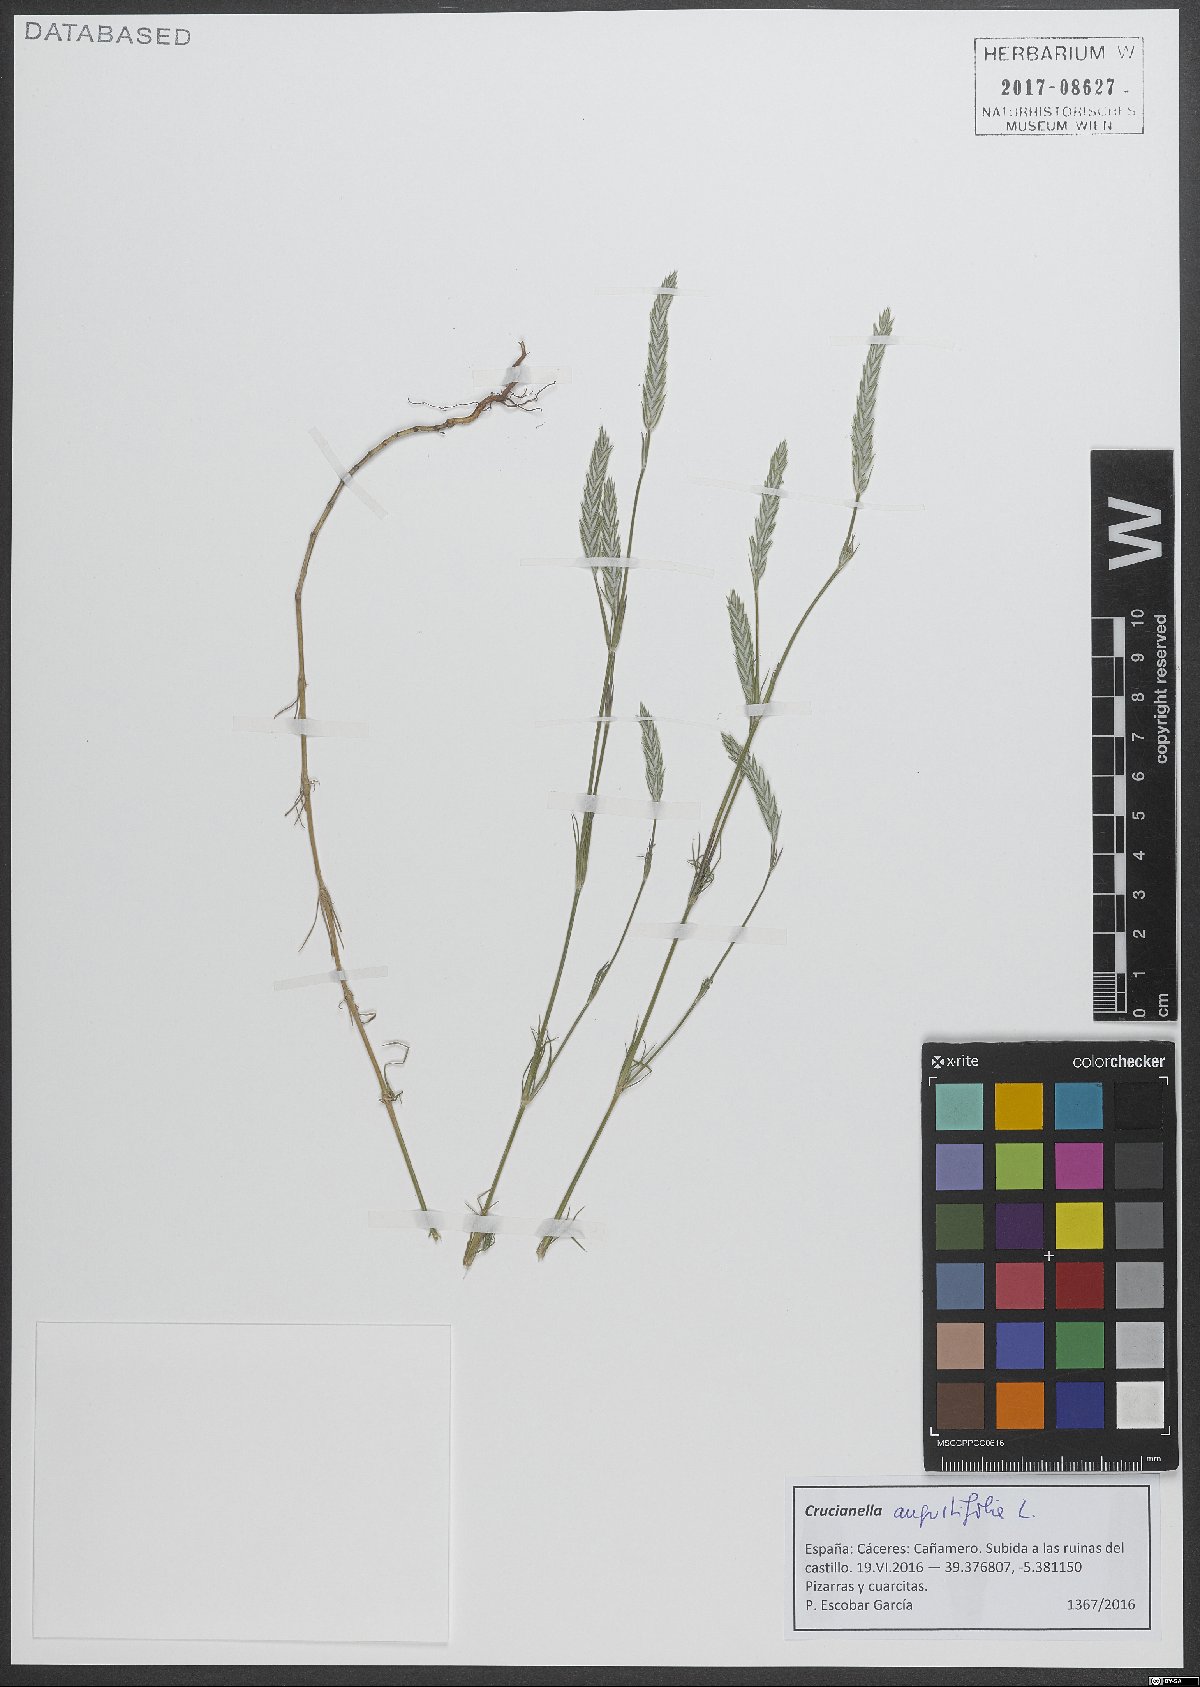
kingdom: Plantae
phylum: Tracheophyta
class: Magnoliopsida
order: Gentianales
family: Rubiaceae
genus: Crucianella
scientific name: Crucianella angustifolia
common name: Narrowleaf crucianella
